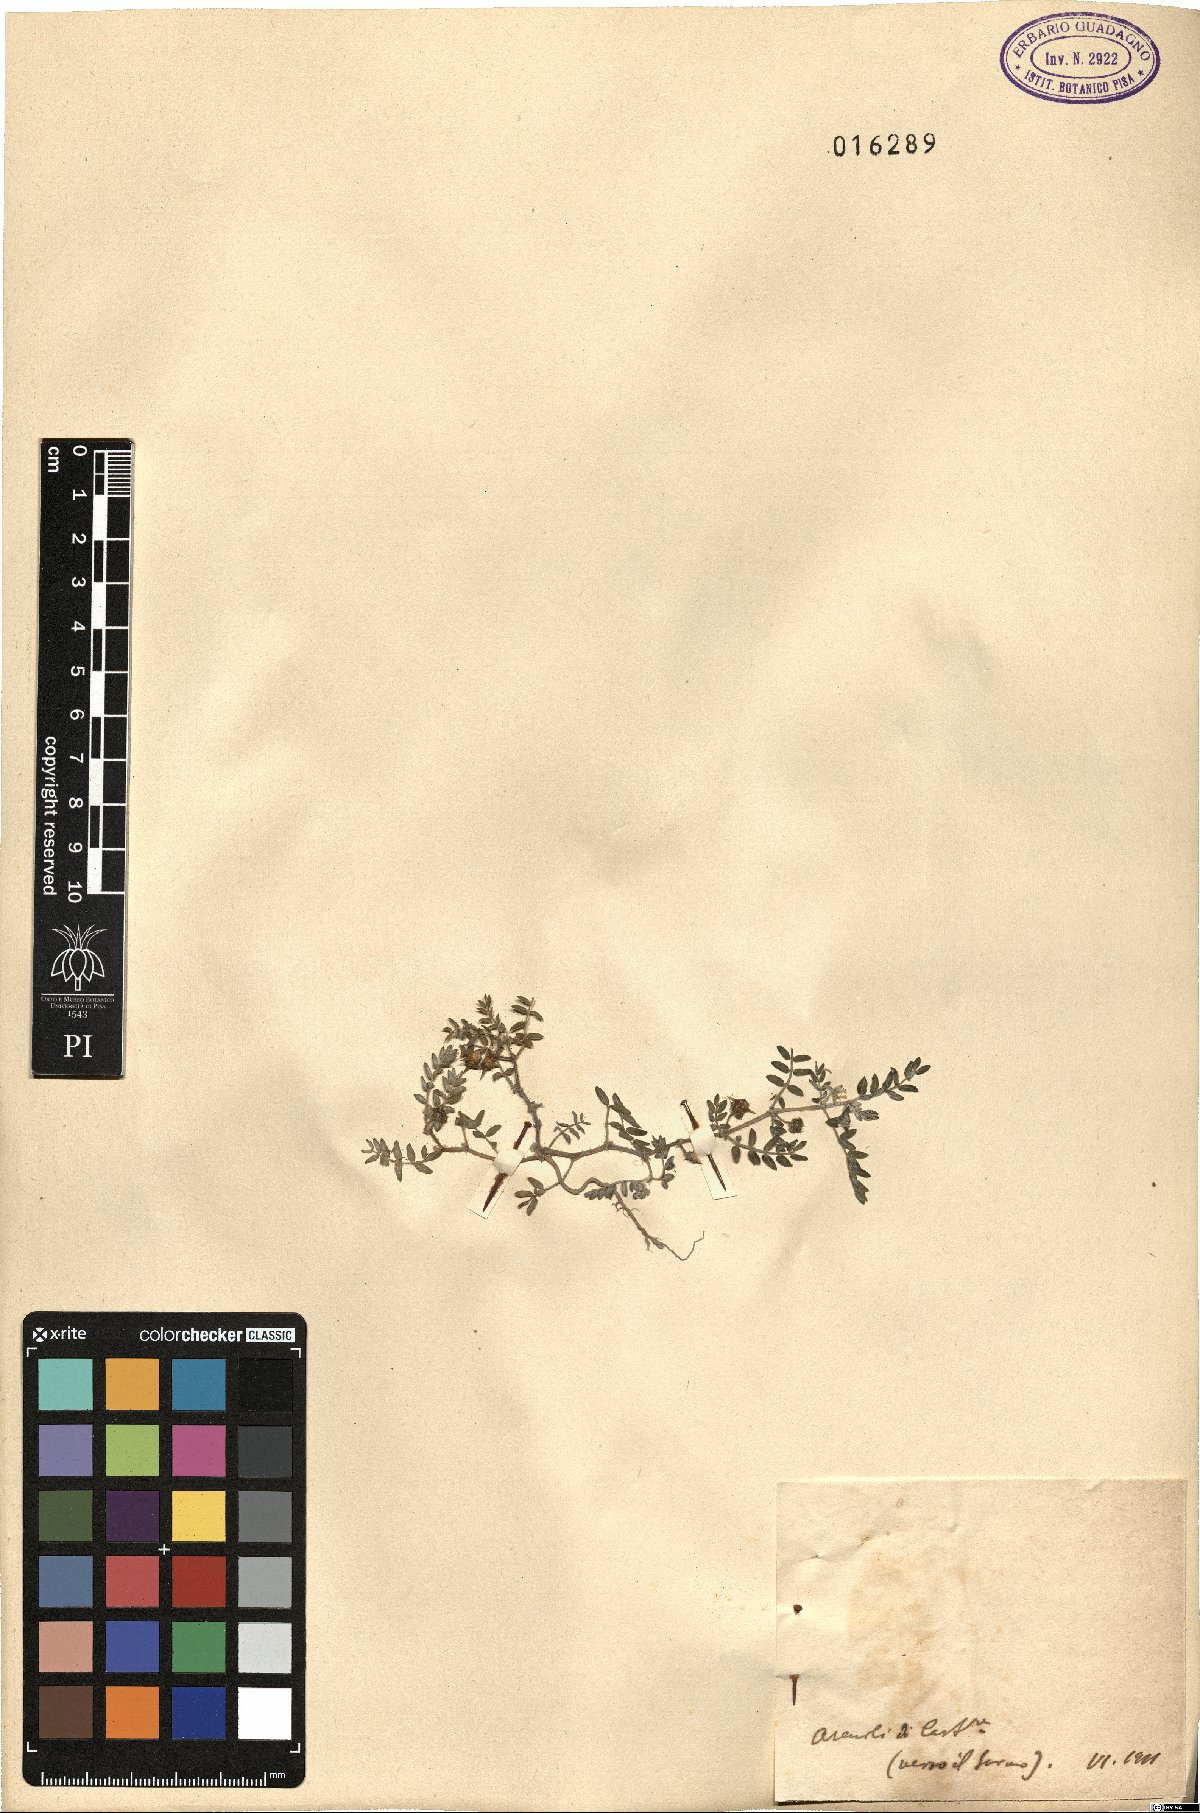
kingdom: Plantae
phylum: Tracheophyta
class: Magnoliopsida
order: Zygophyllales
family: Zygophyllaceae
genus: Tribulus
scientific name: Tribulus
